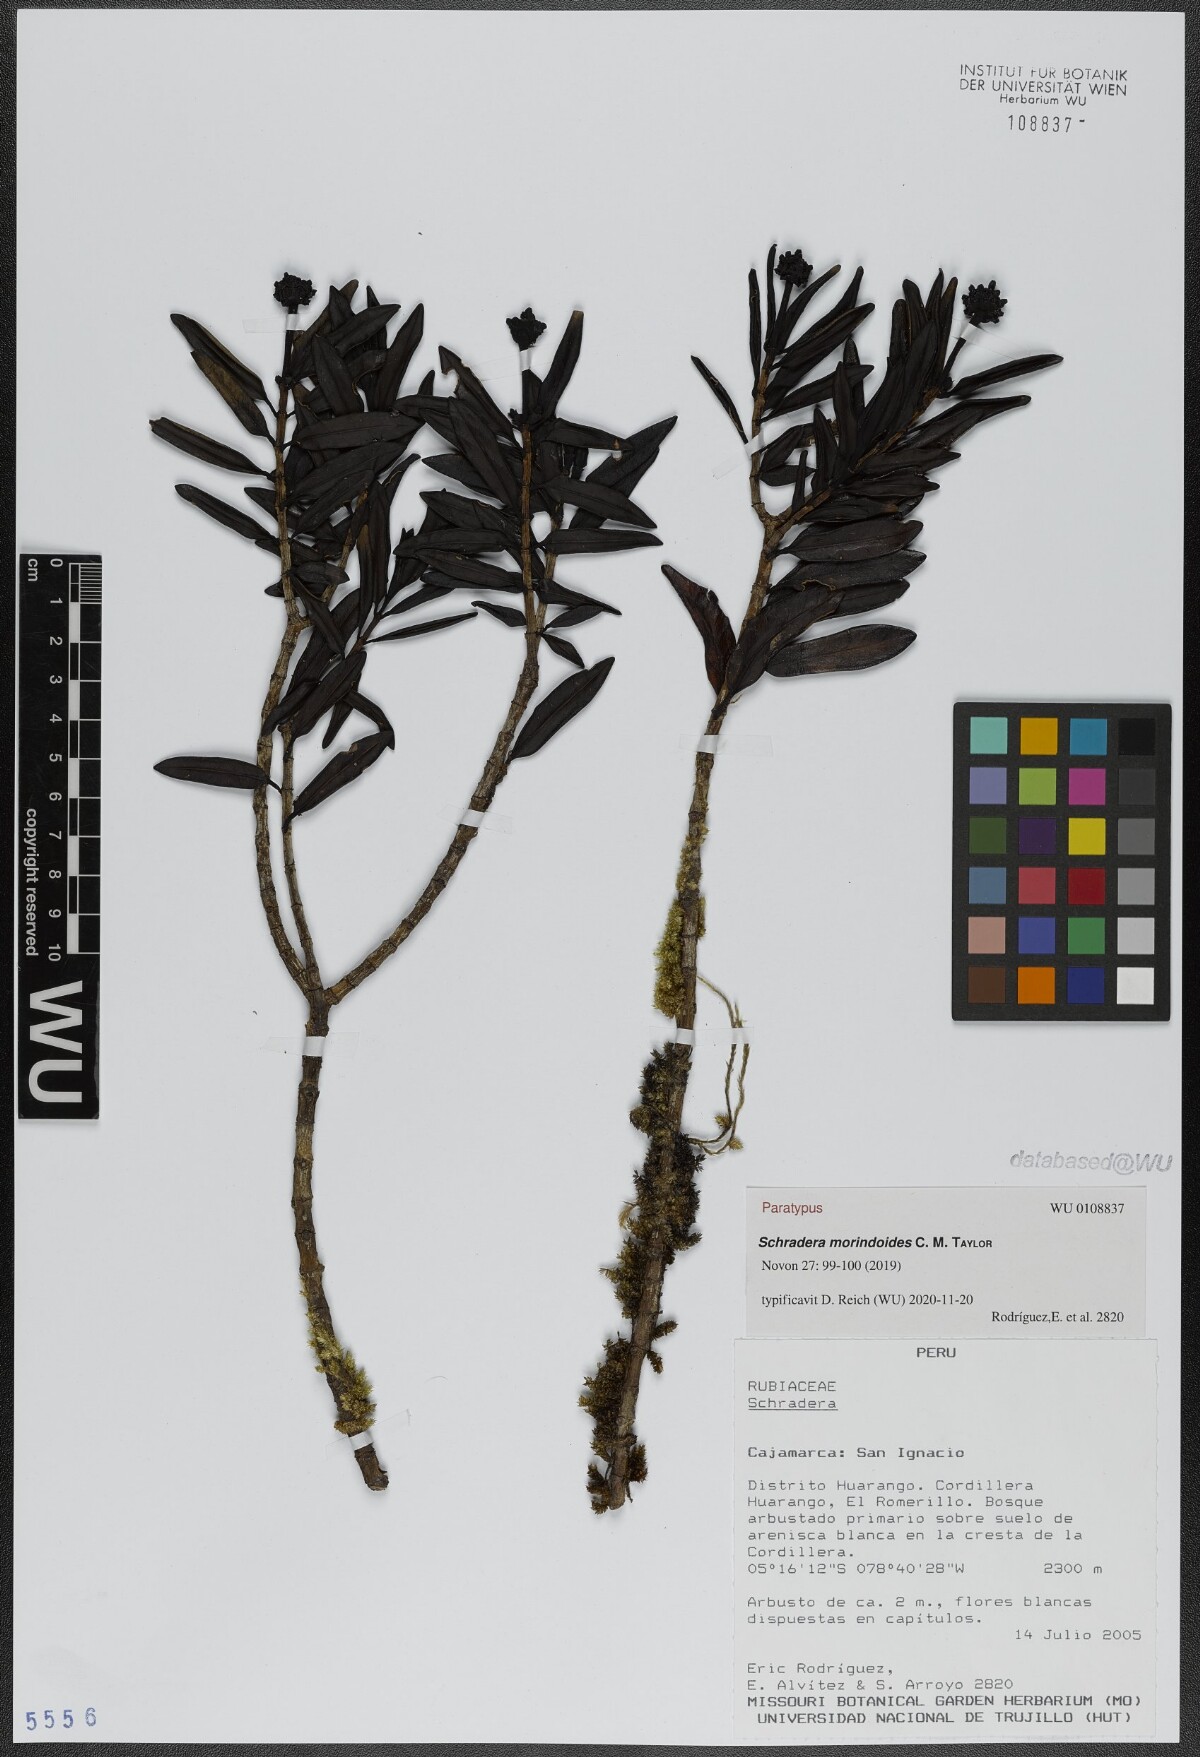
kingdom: Plantae
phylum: Tracheophyta
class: Magnoliopsida
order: Gentianales
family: Rubiaceae
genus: Schradera
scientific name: Schradera morindoides
